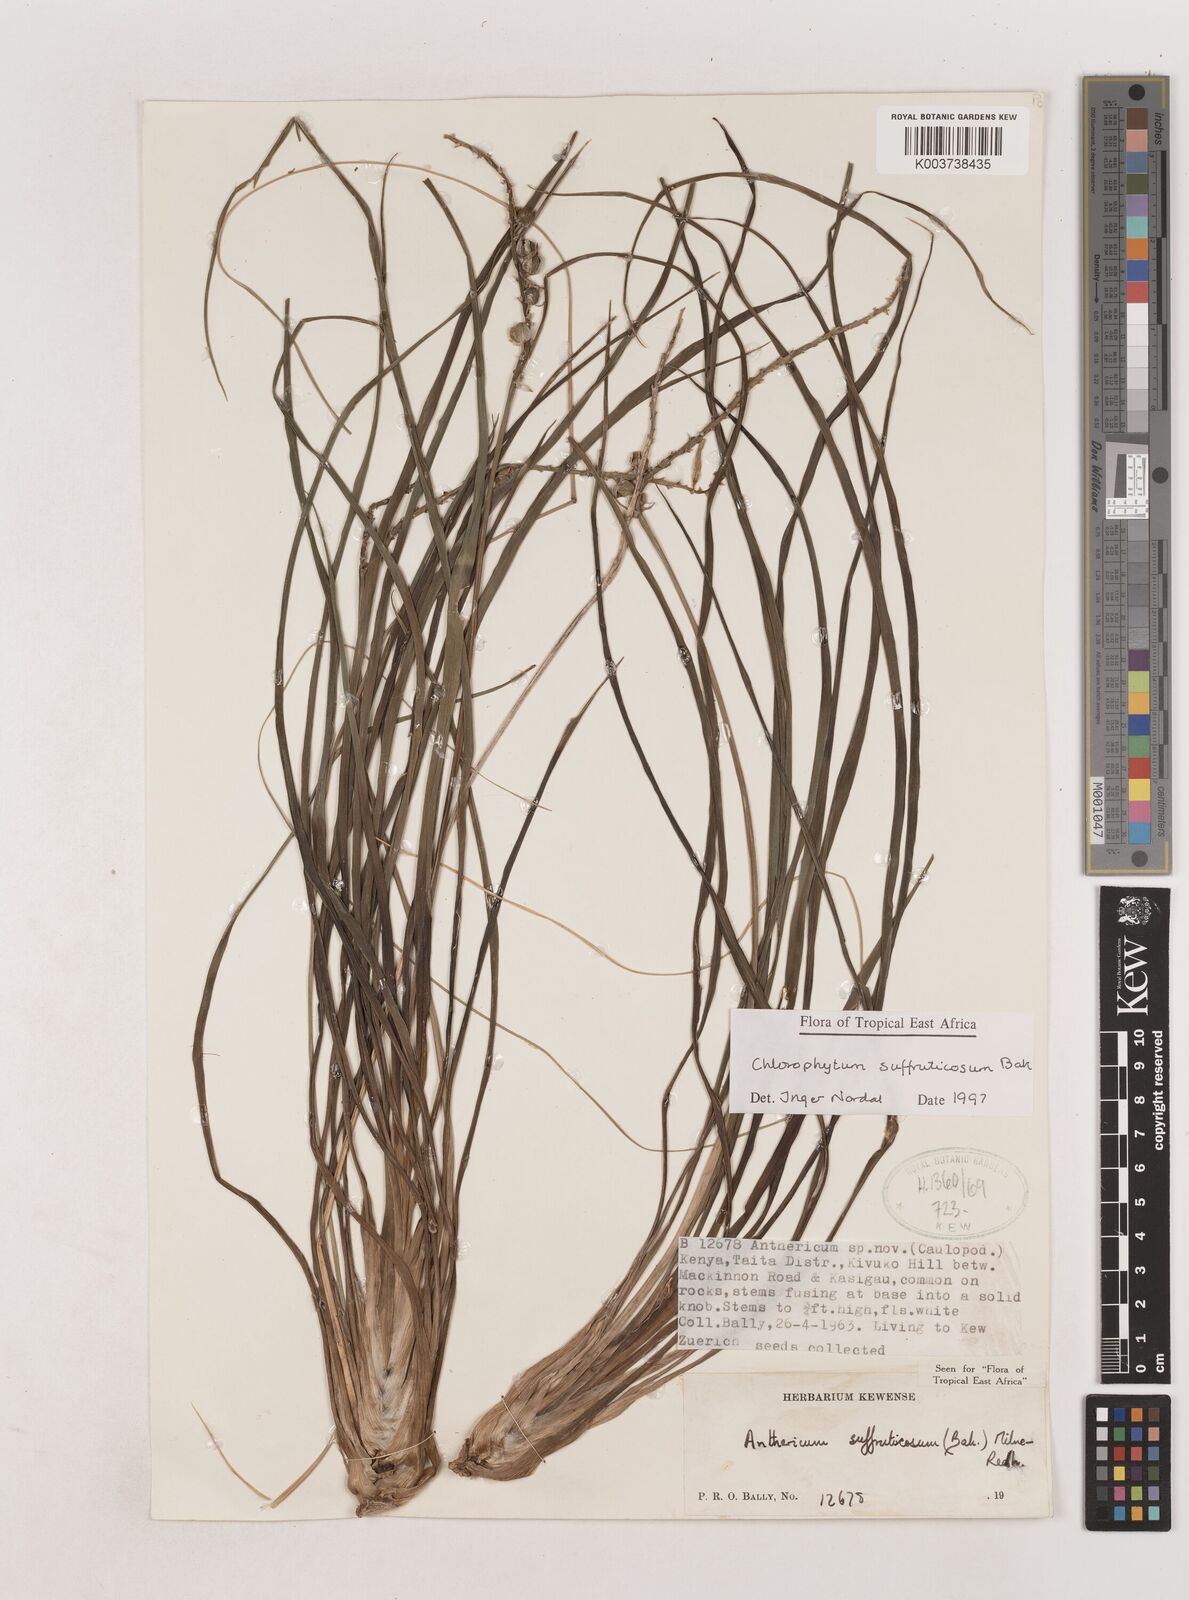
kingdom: Plantae
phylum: Tracheophyta
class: Liliopsida
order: Asparagales
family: Asparagaceae
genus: Chlorophytum
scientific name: Chlorophytum suffruticosum
